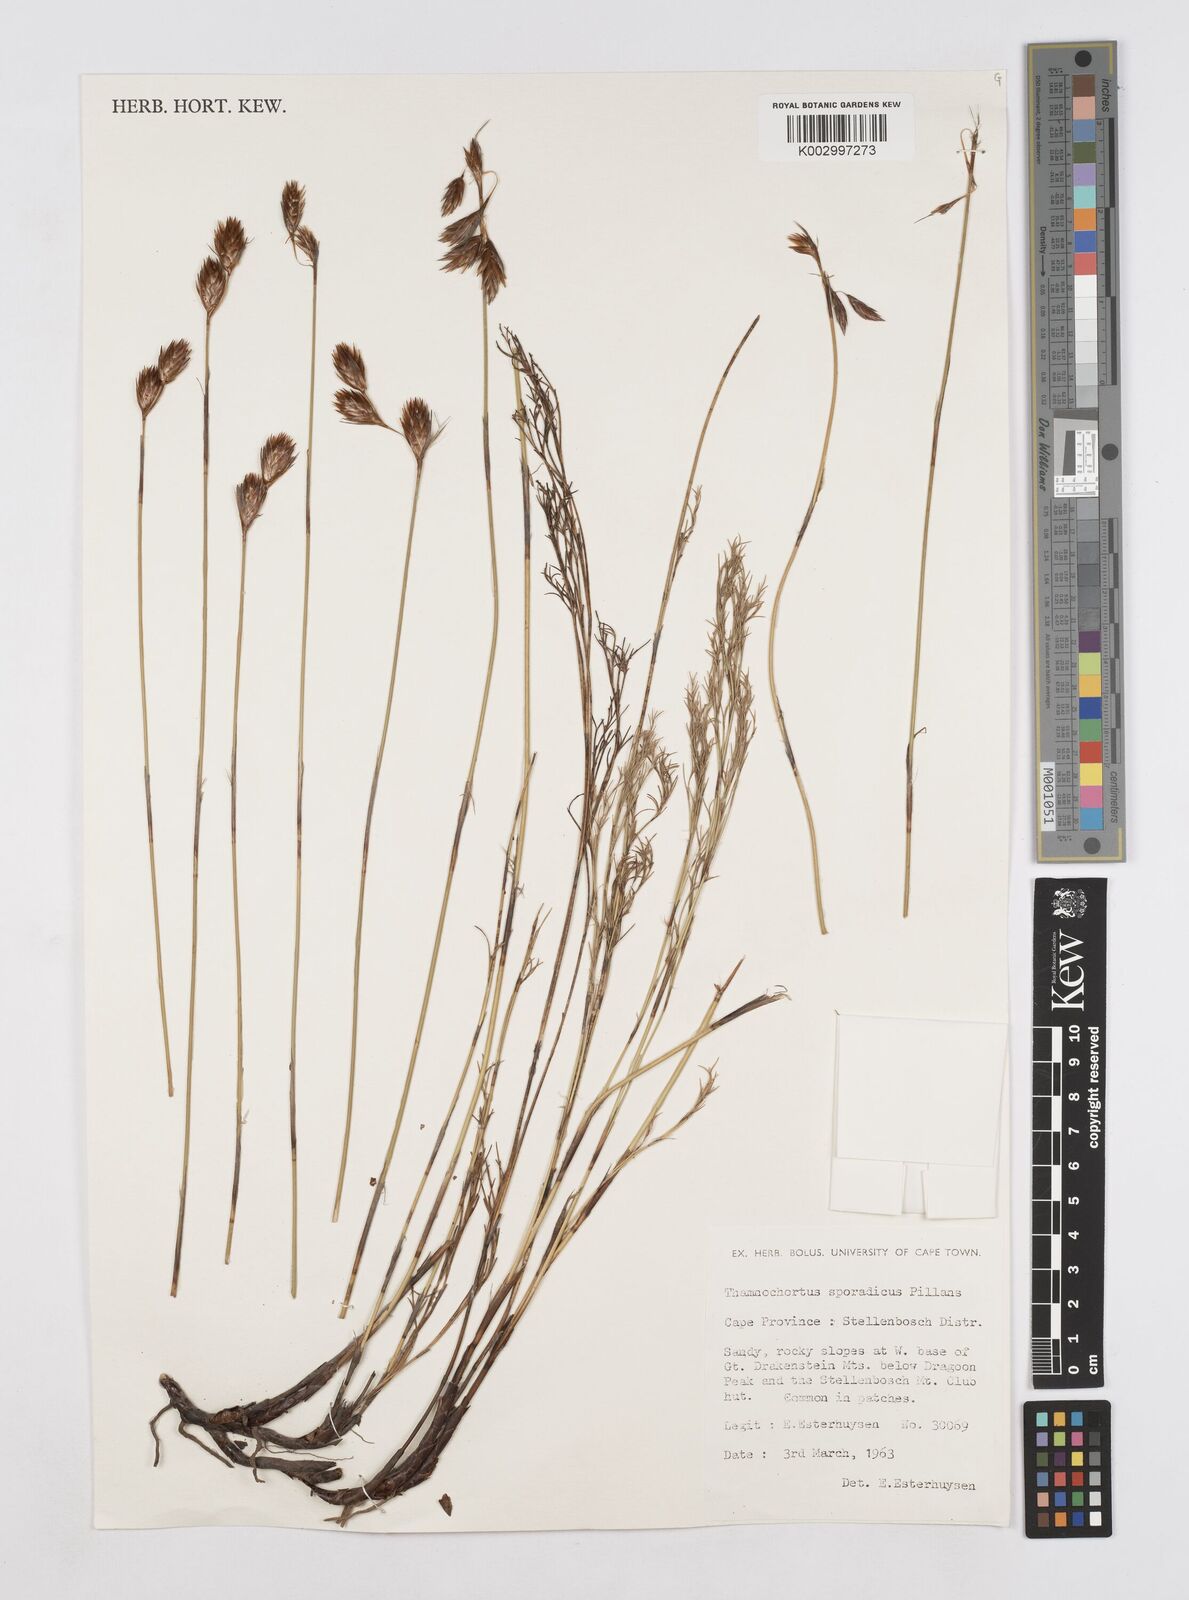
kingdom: Plantae
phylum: Tracheophyta
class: Liliopsida
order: Poales
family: Restionaceae
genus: Thamnochortus
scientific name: Thamnochortus sporadicus
